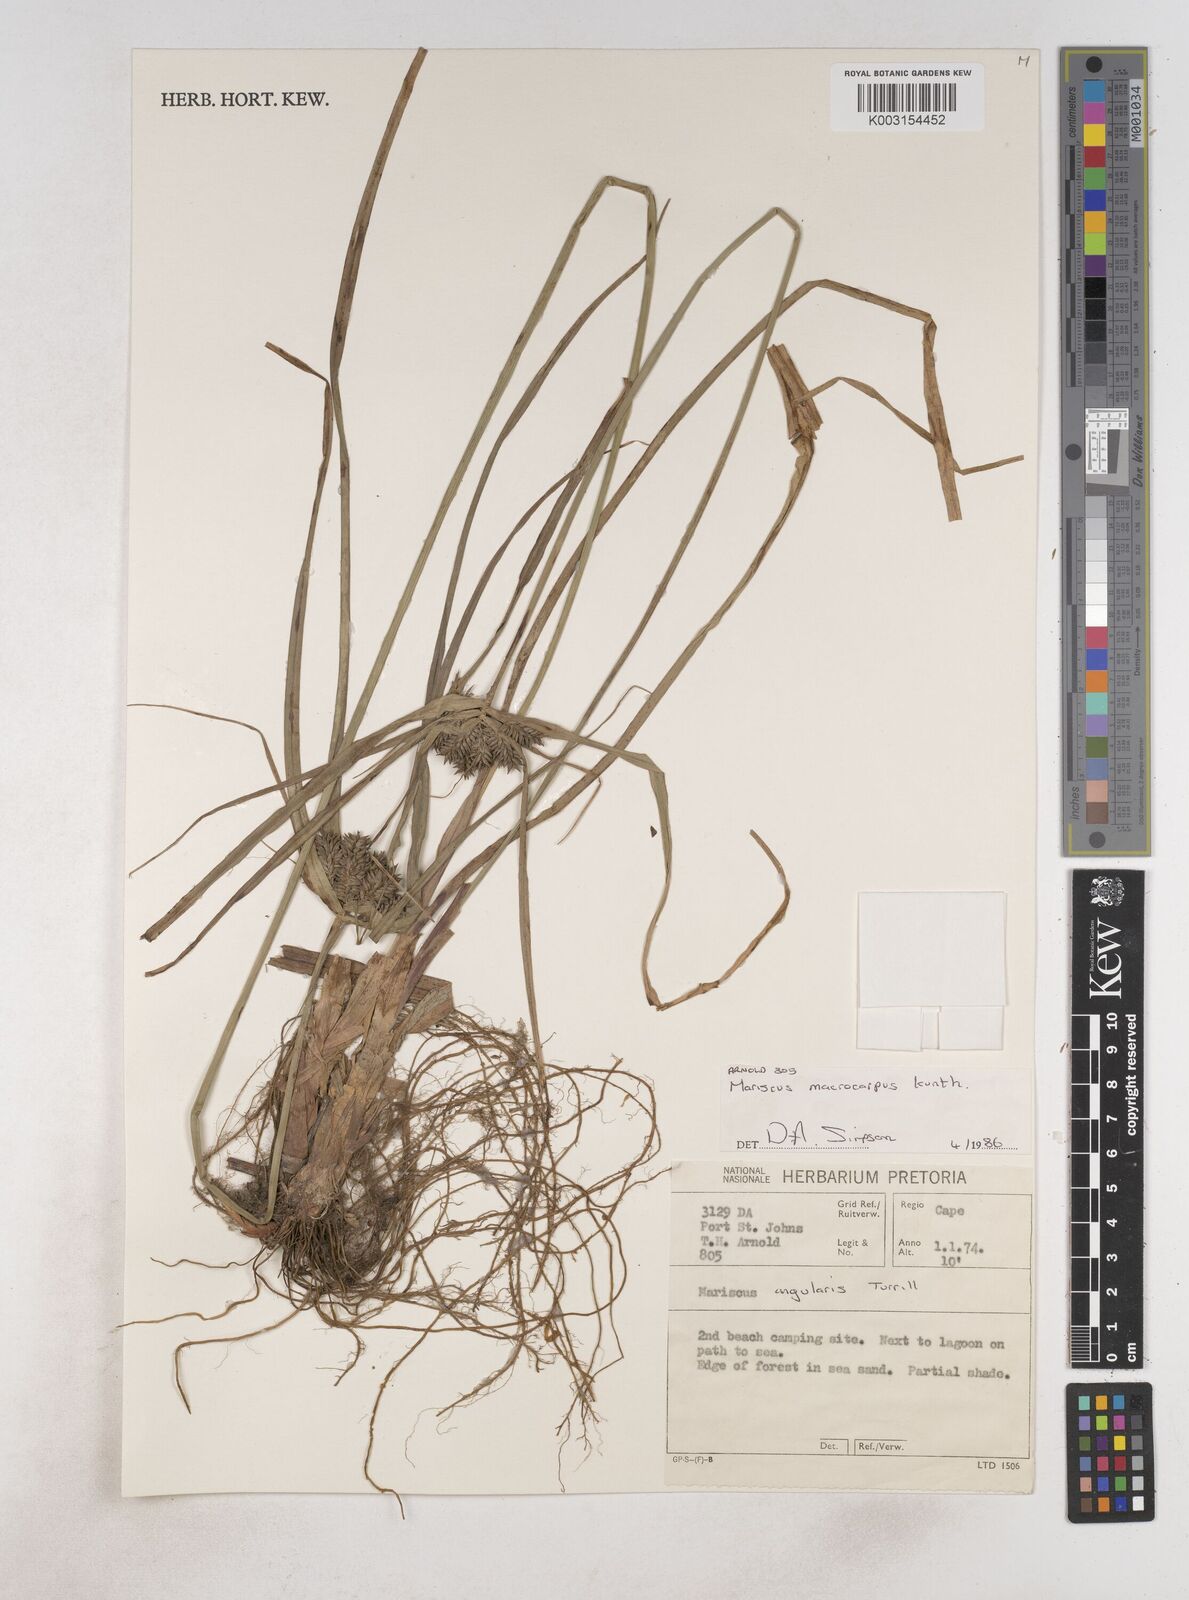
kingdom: Plantae
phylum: Tracheophyta
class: Liliopsida
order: Poales
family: Cyperaceae
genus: Cyperus
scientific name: Cyperus macrocarpus
